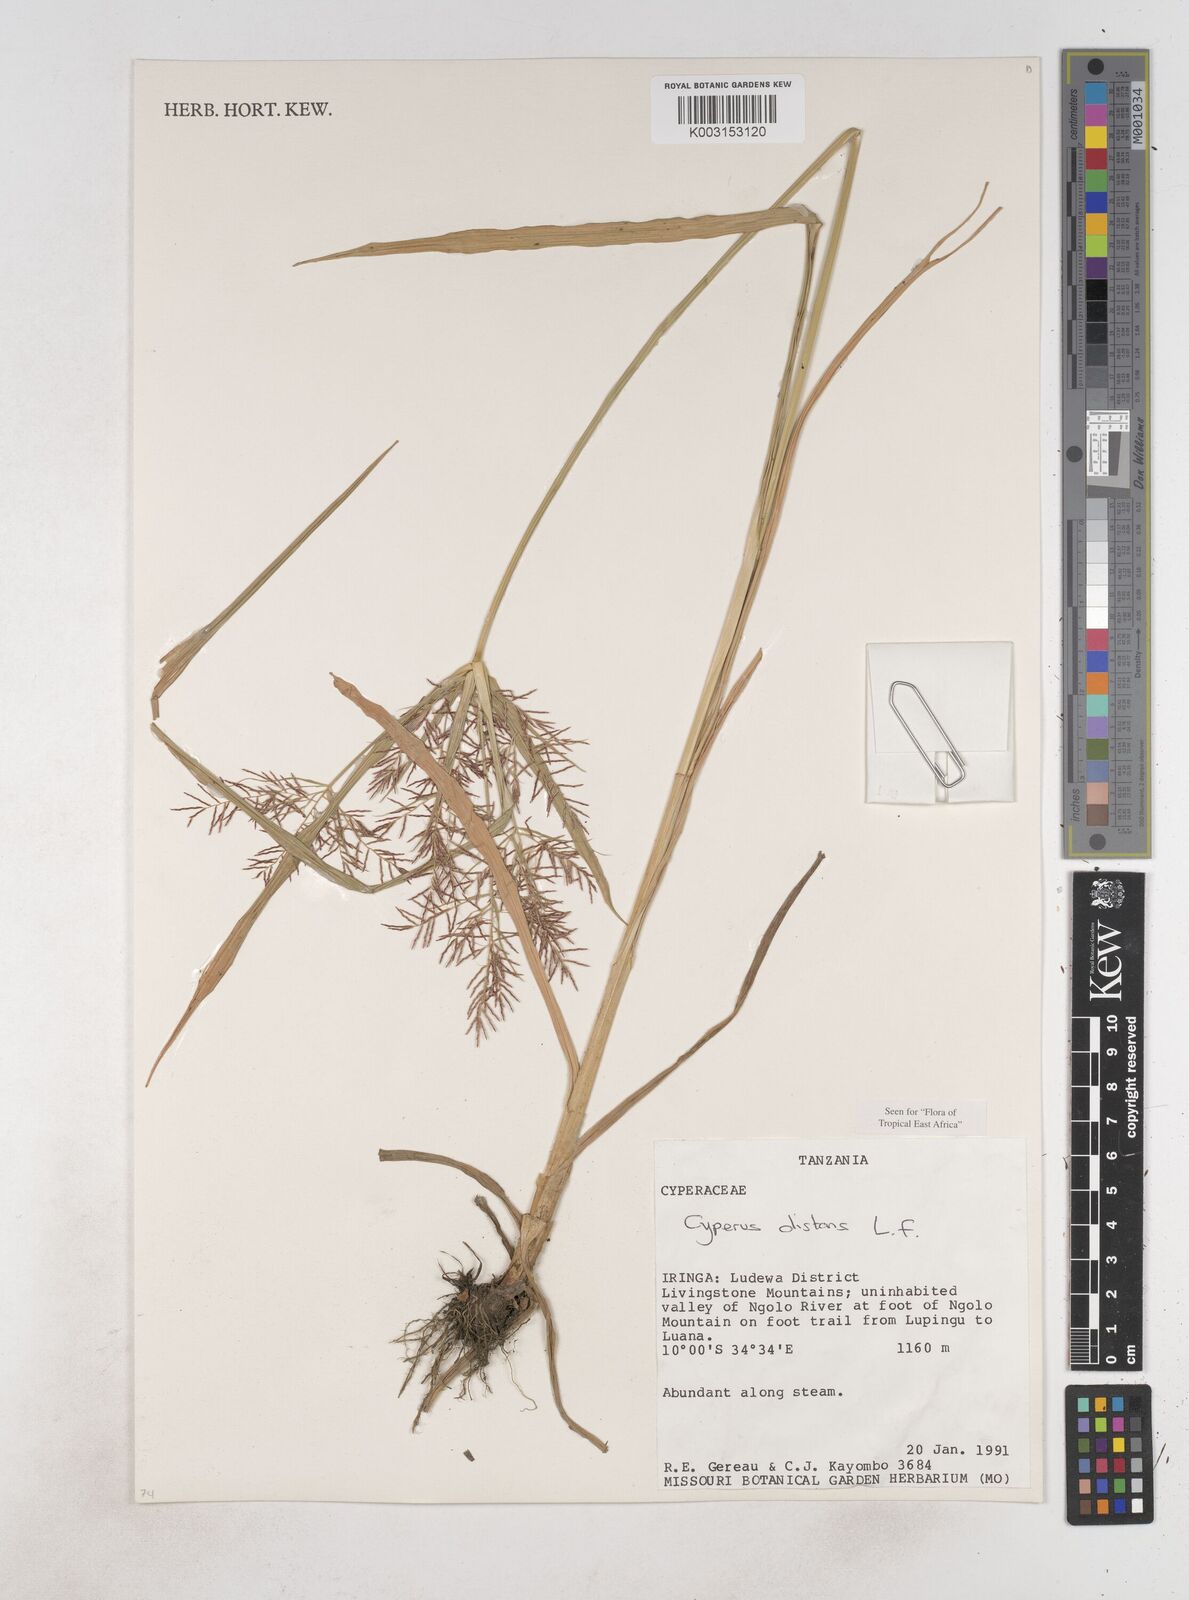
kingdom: Plantae
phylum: Tracheophyta
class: Liliopsida
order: Poales
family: Cyperaceae
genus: Cyperus
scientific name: Cyperus distans
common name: Slender cyperus
